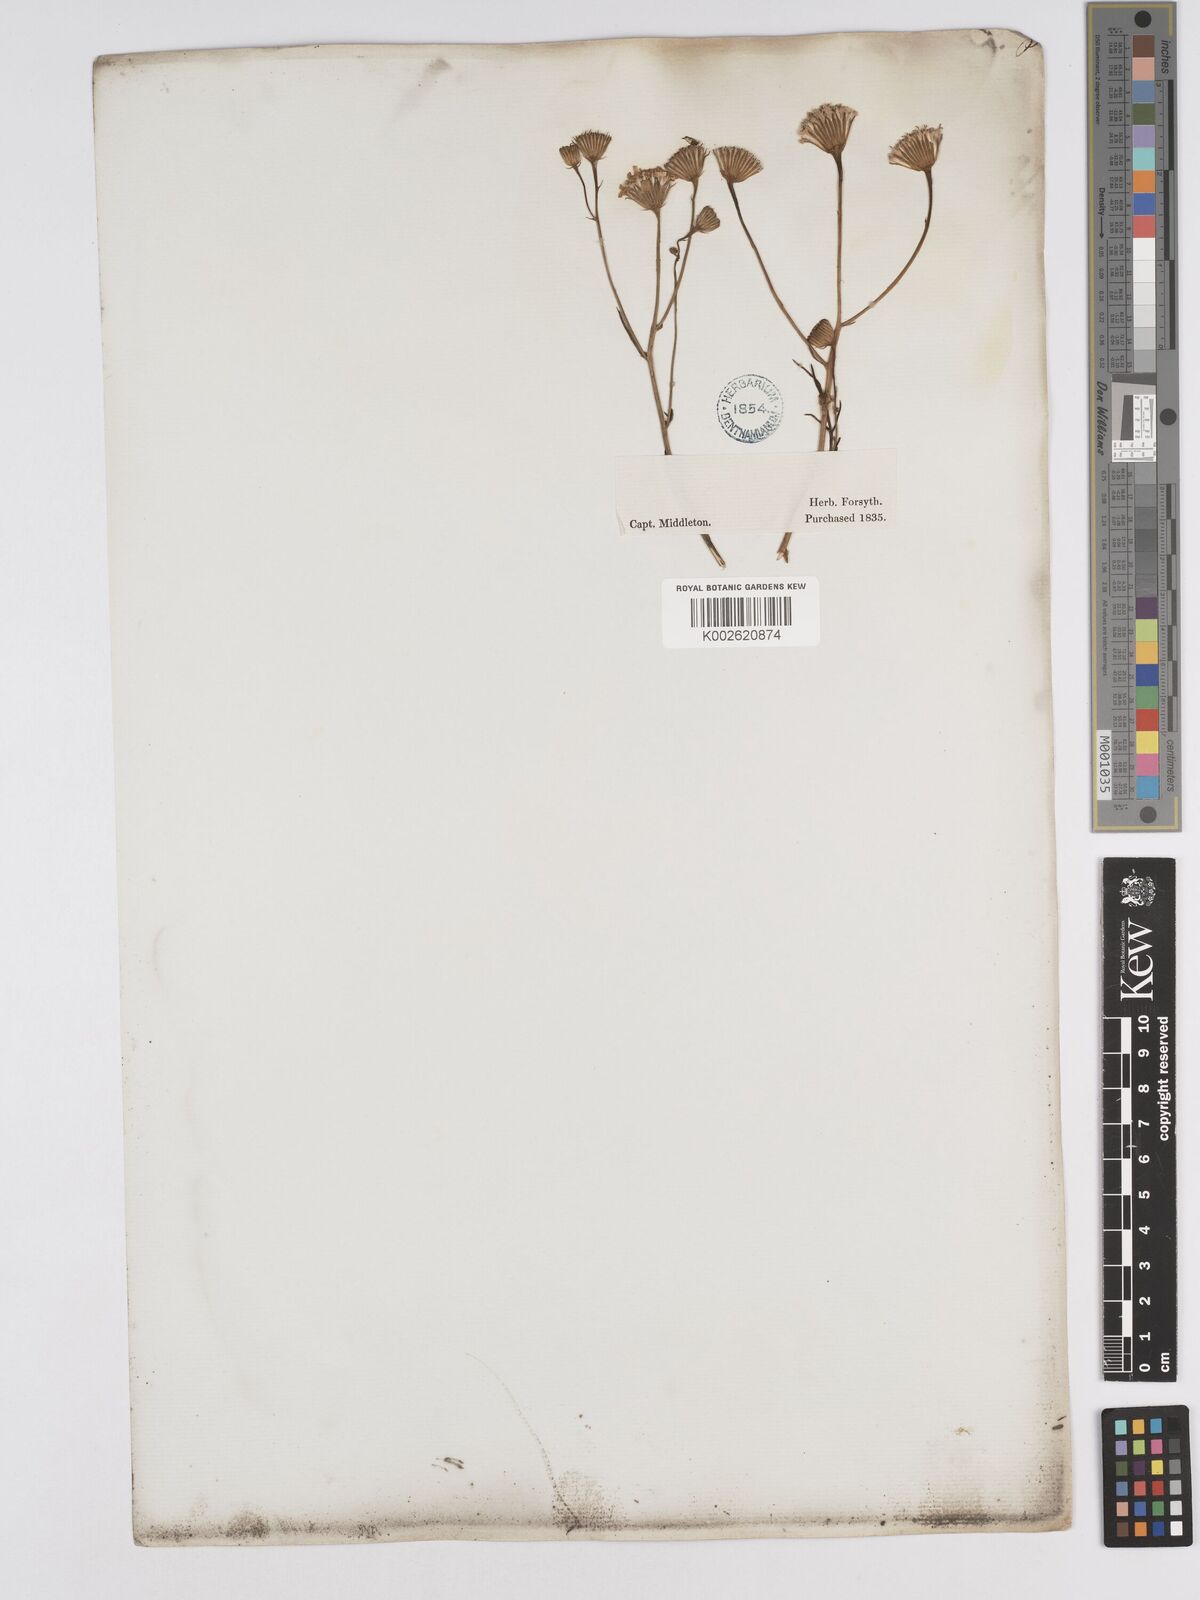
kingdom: Plantae
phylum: Tracheophyta
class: Magnoliopsida
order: Asterales
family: Asteraceae
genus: Senecio
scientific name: Senecio viscosissimus
